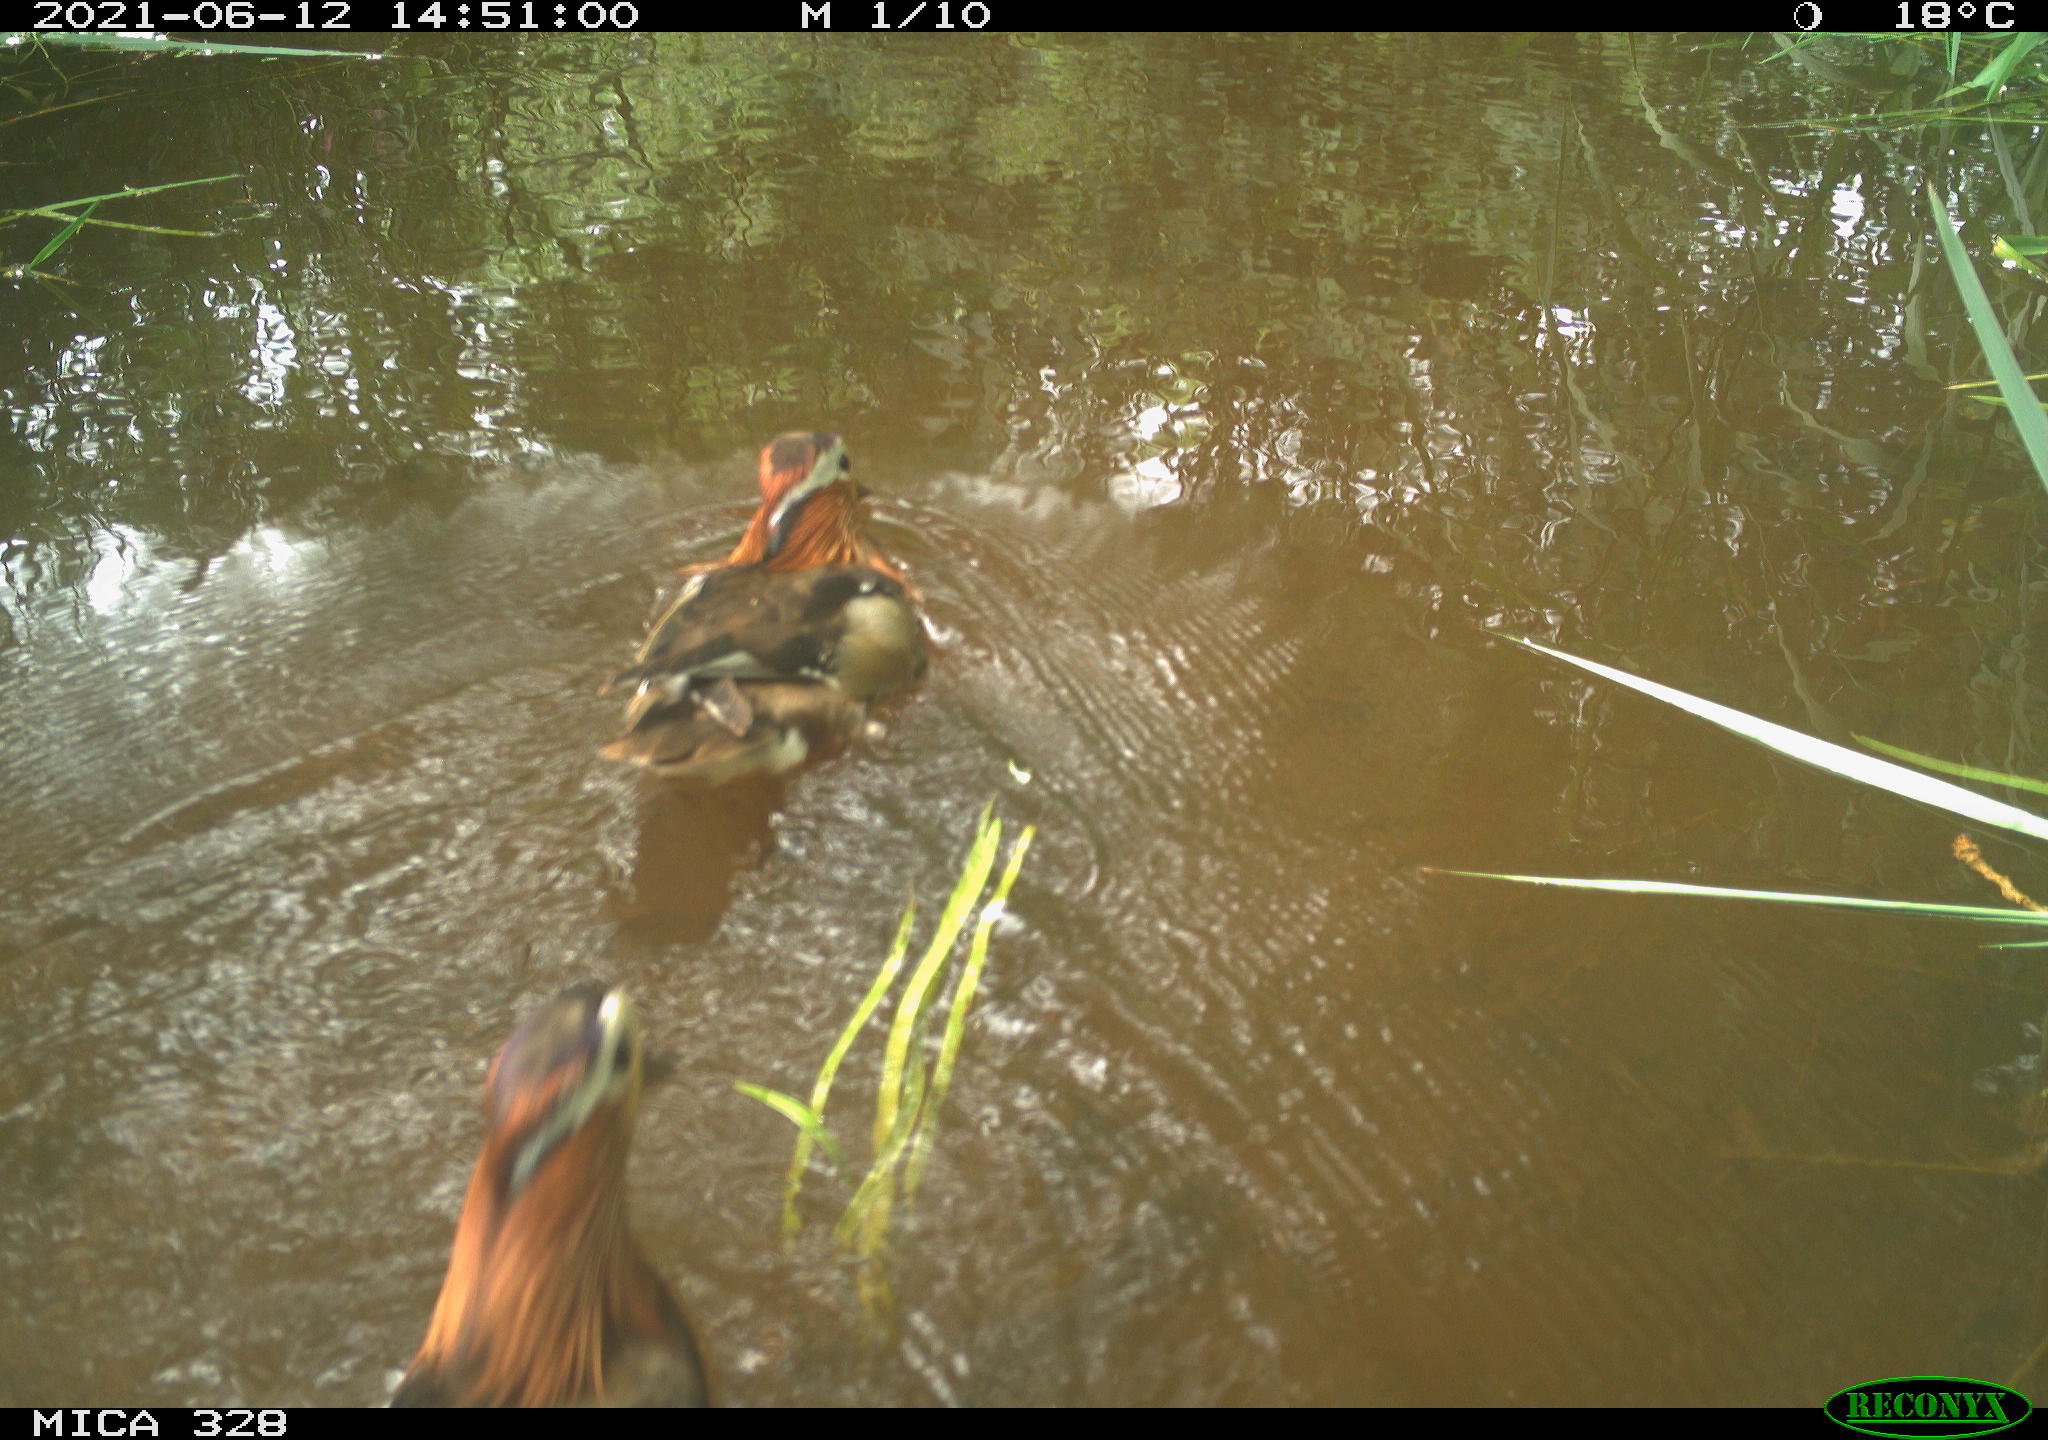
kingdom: Animalia
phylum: Chordata
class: Aves
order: Anseriformes
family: Anatidae
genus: Aix
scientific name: Aix galericulata
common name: Mandarin duck
